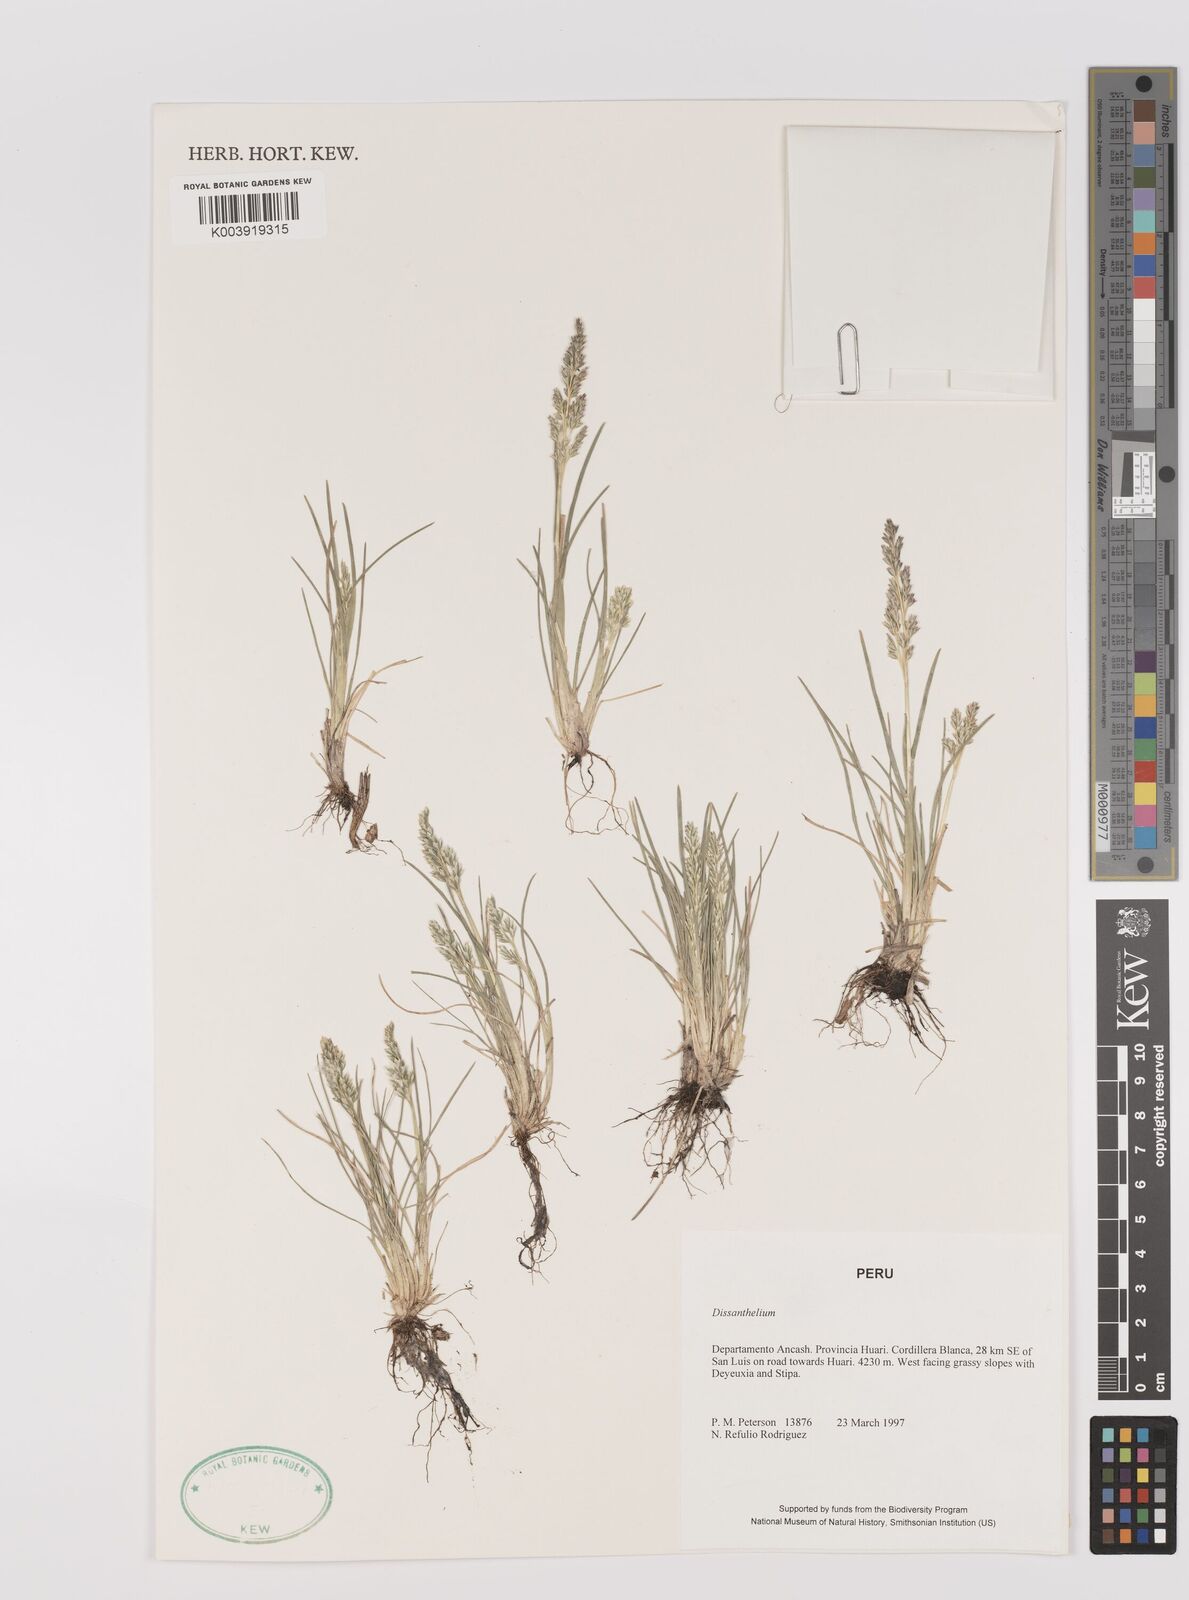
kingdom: Plantae
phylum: Tracheophyta
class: Liliopsida
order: Poales
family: Poaceae
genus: Poa
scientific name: Poa
